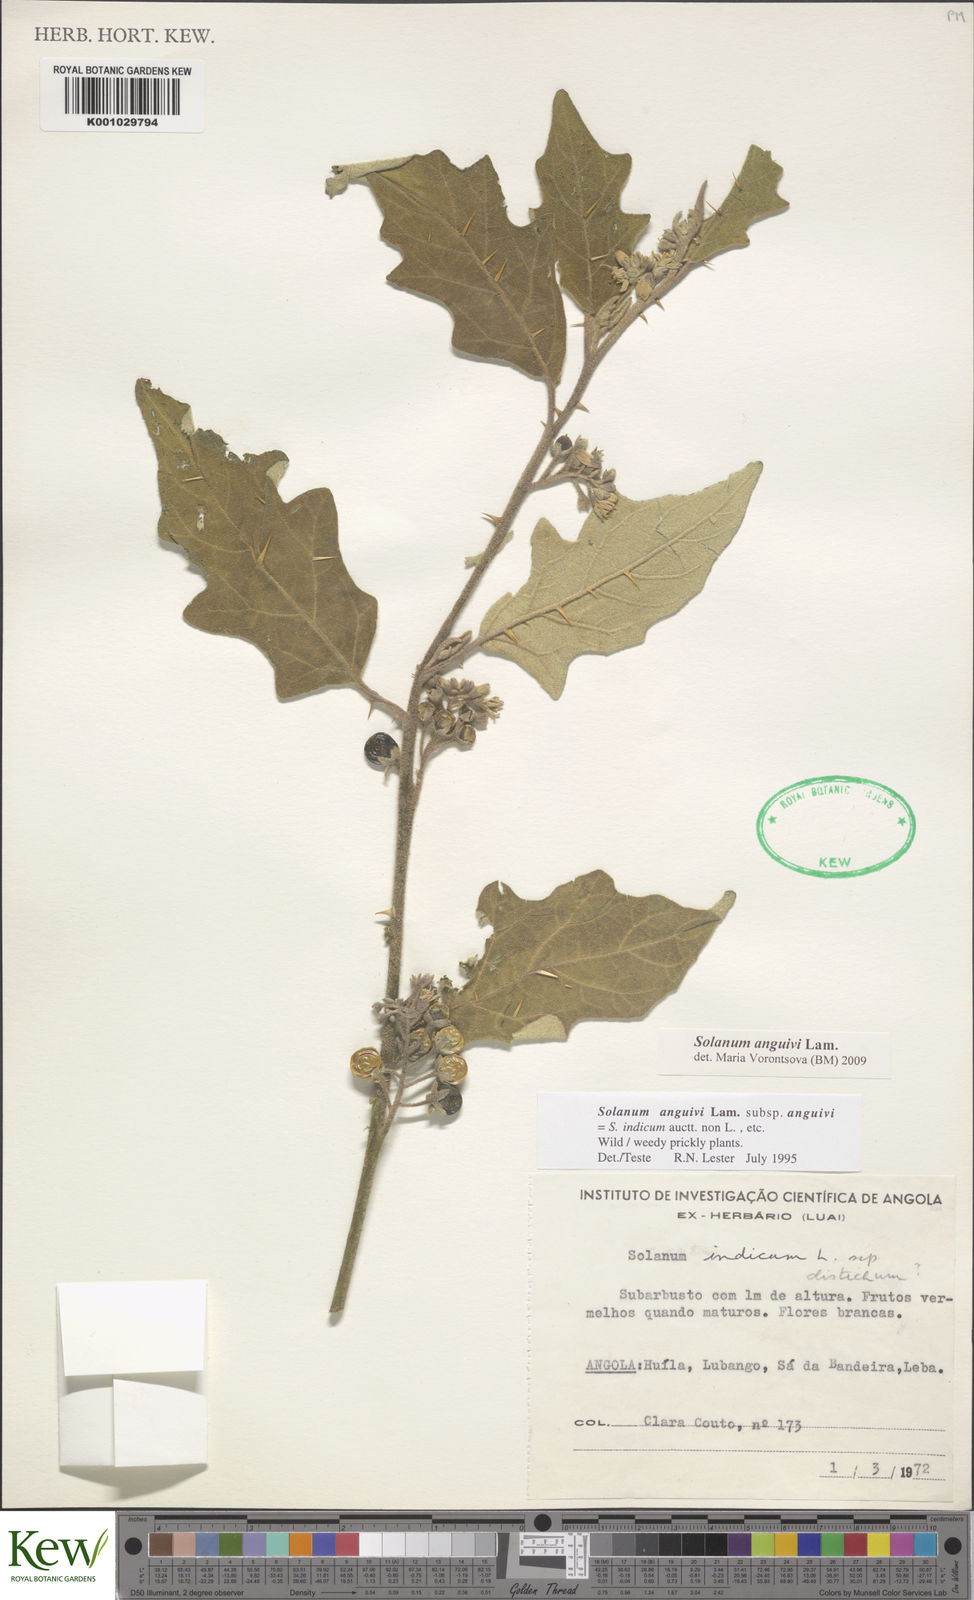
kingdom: Plantae
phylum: Tracheophyta
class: Magnoliopsida
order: Solanales
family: Solanaceae
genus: Solanum
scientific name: Solanum anguivi
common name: Forest bitterberry
